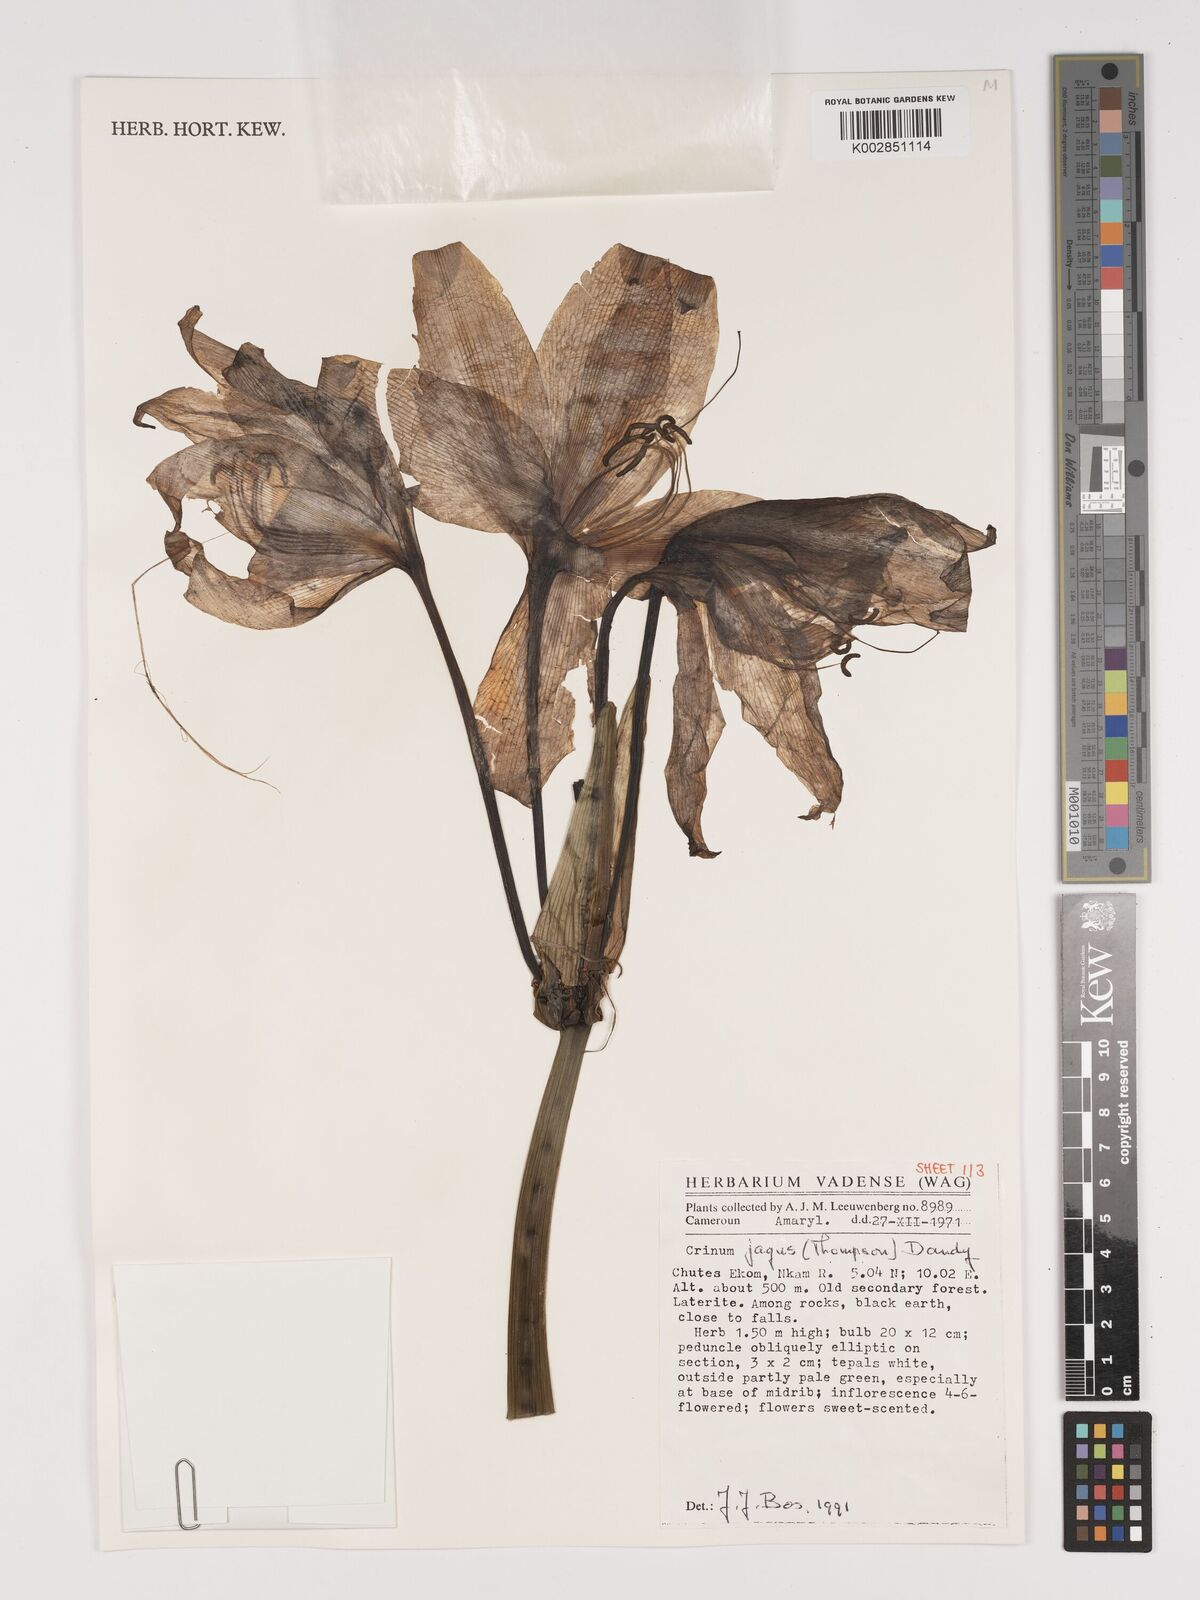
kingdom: Plantae
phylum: Tracheophyta
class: Liliopsida
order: Asparagales
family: Amaryllidaceae
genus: Crinum
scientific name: Crinum jagus
